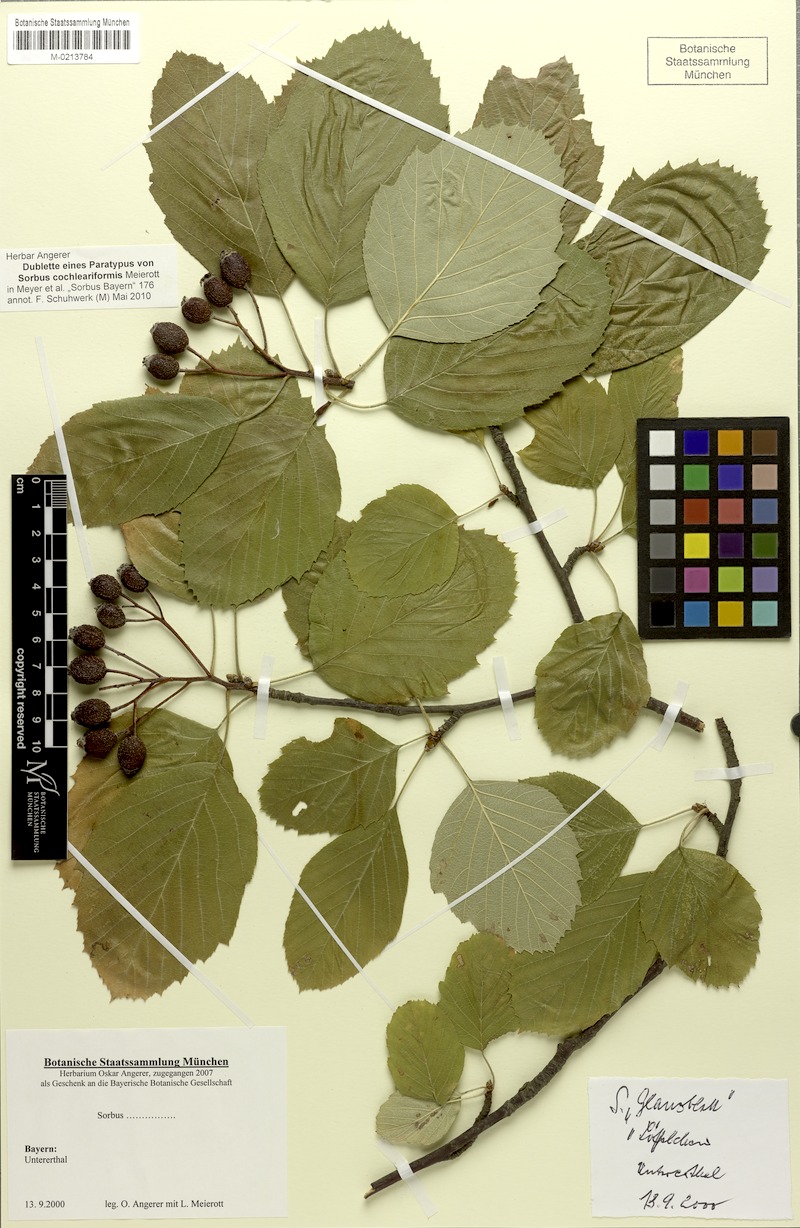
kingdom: Plantae
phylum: Tracheophyta
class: Magnoliopsida
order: Rosales
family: Rosaceae
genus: Karpatiosorbus
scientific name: Karpatiosorbus hybrida
